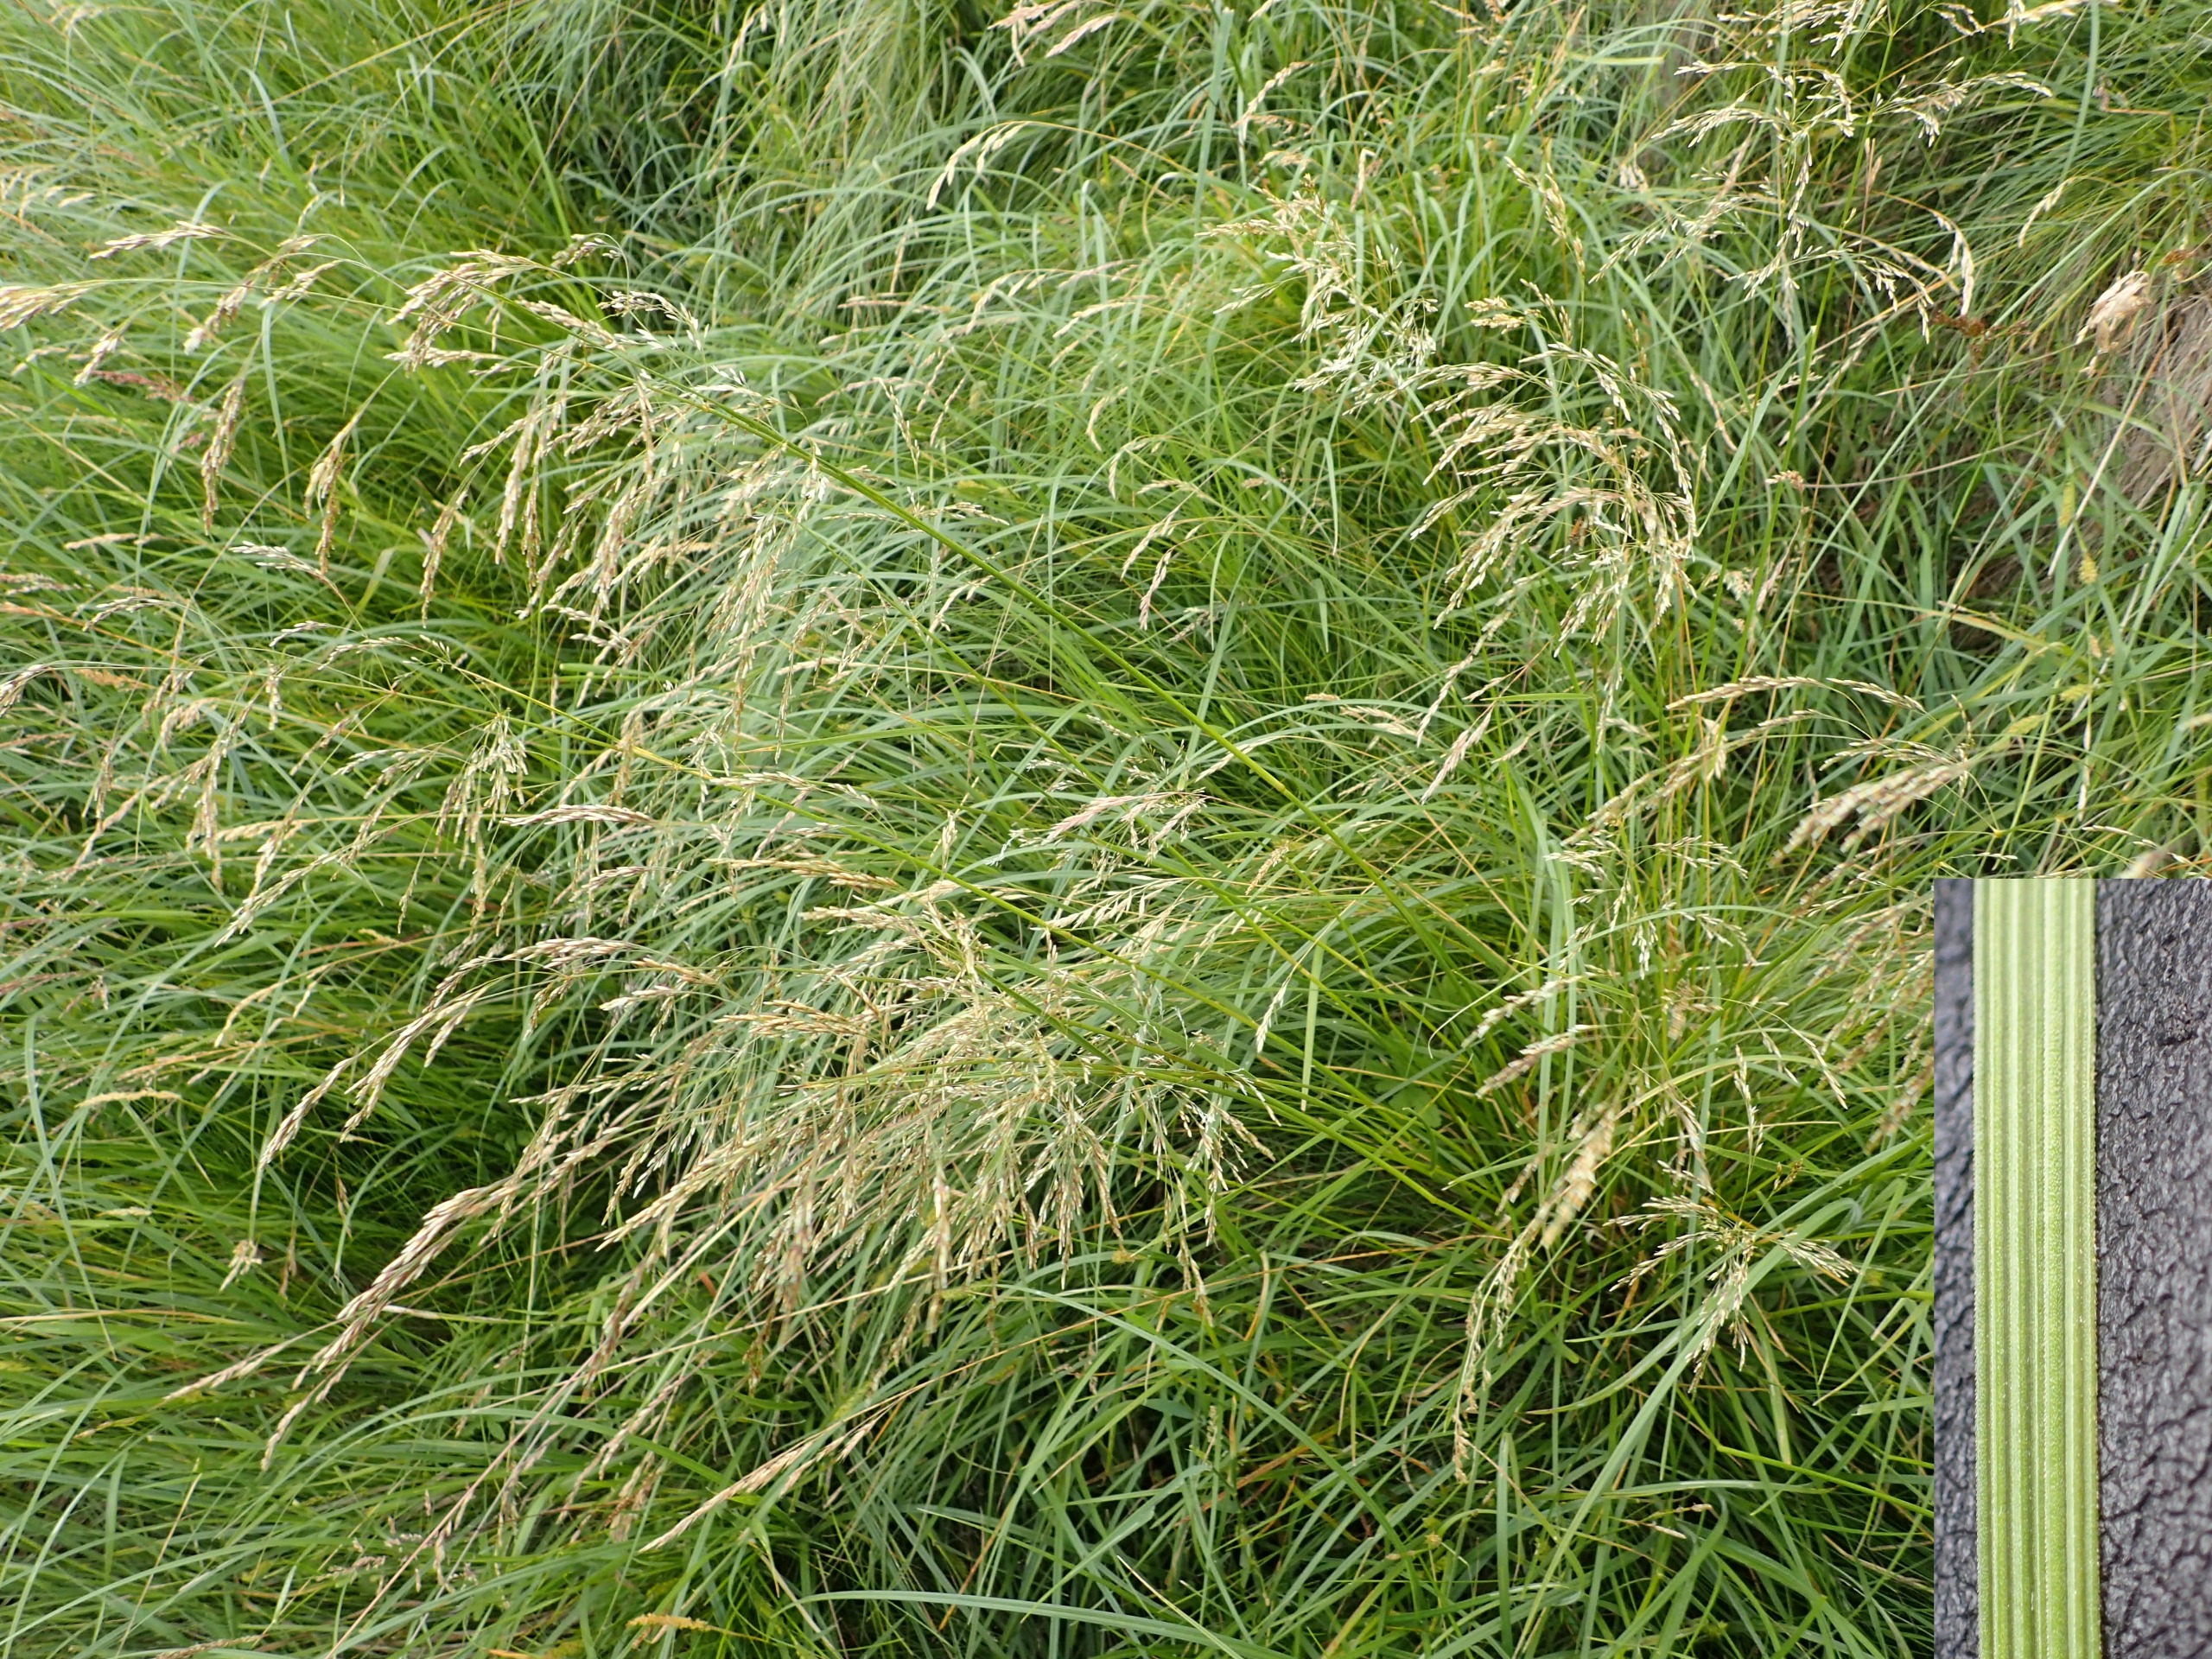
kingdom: Plantae
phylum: Tracheophyta
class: Liliopsida
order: Poales
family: Poaceae
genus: Deschampsia
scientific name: Deschampsia cespitosa
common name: Mose-bunke
